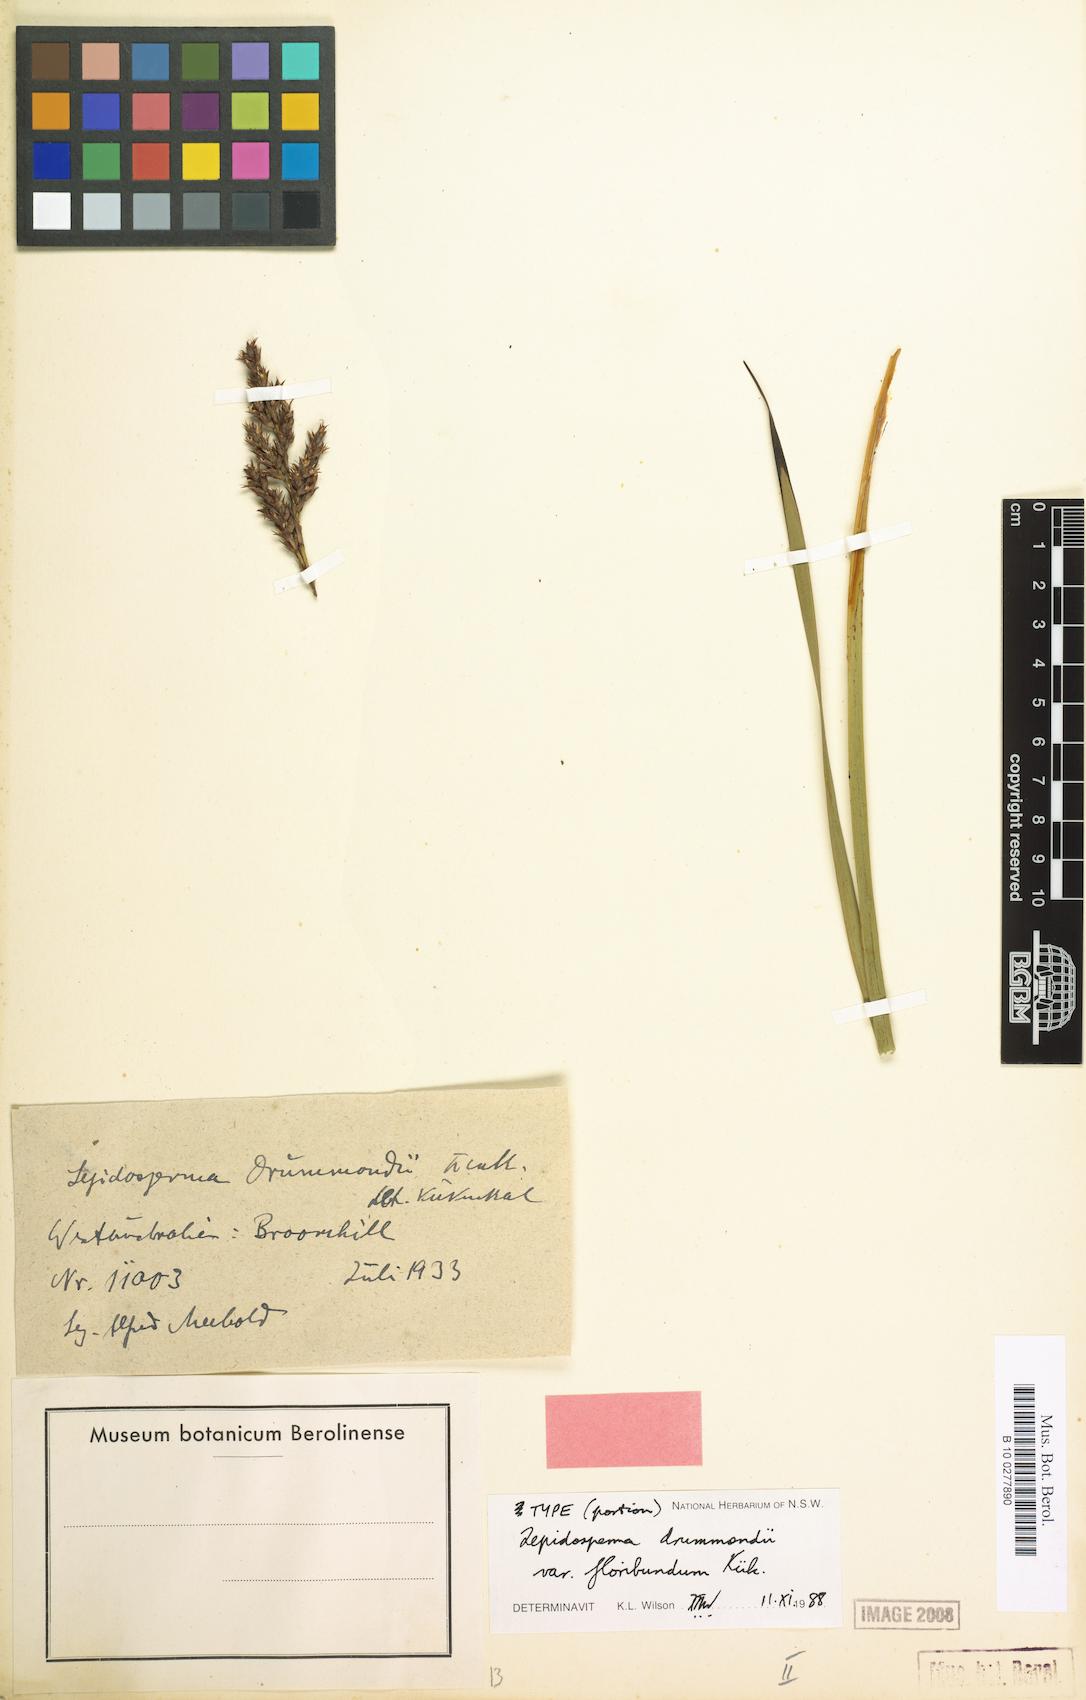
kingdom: Plantae
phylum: Tracheophyta
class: Liliopsida
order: Poales
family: Cyperaceae
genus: Lepidosperma
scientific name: Lepidosperma sanguinolentum
